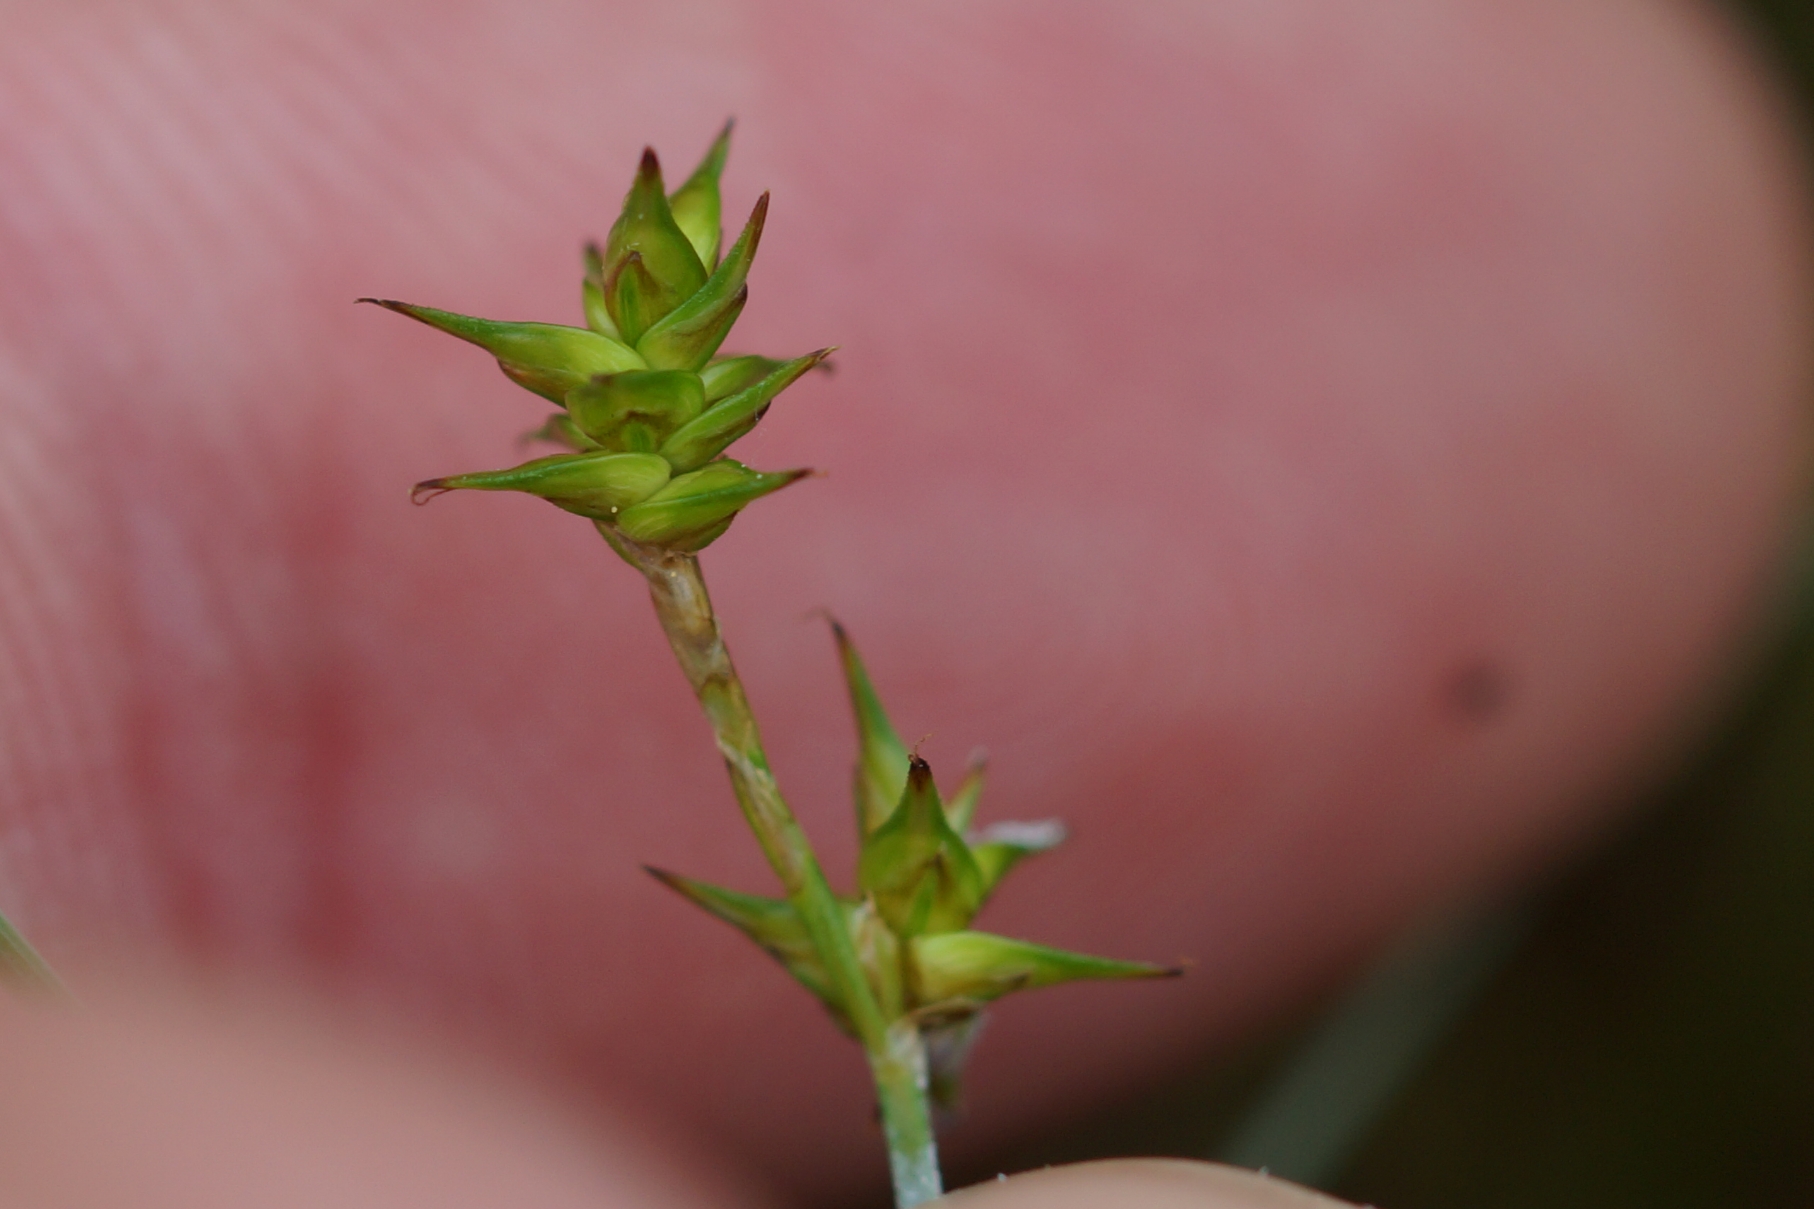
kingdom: Plantae
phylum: Tracheophyta
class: Liliopsida
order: Poales
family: Cyperaceae
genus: Carex
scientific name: Carex echinata
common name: Stjerne-star
